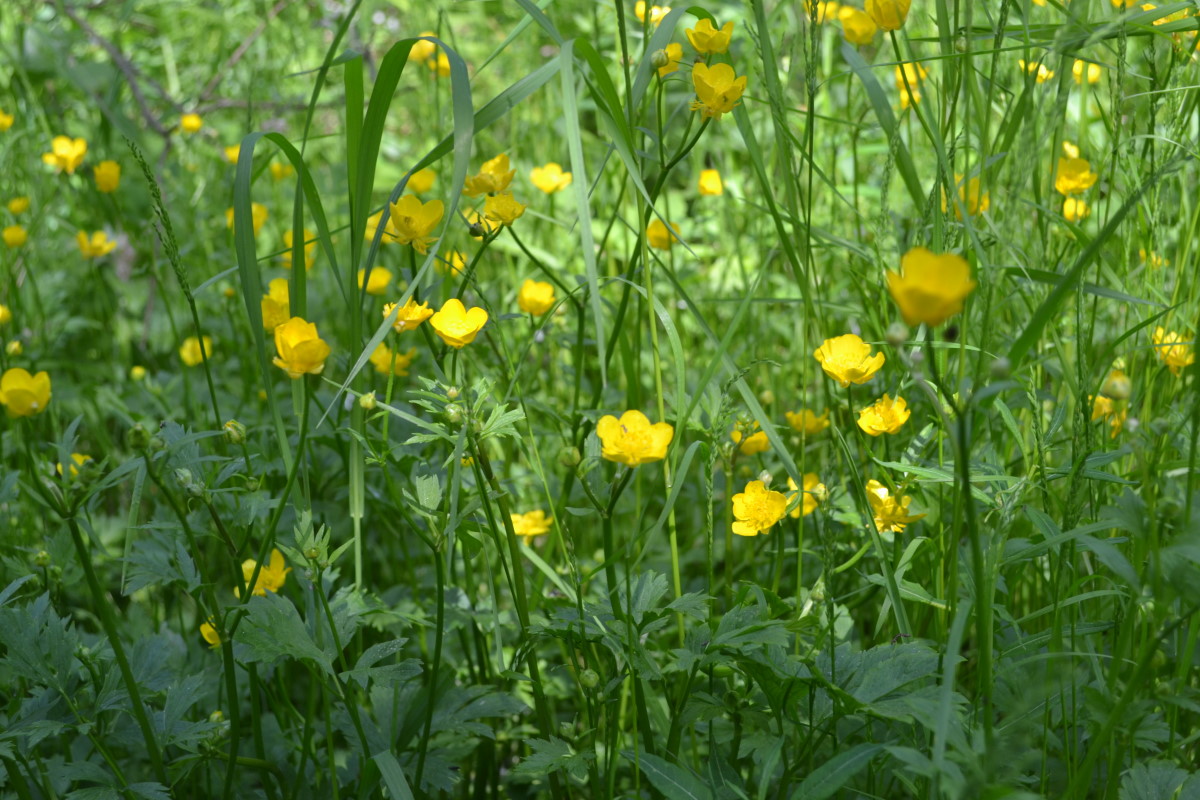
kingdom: Plantae
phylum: Tracheophyta
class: Magnoliopsida
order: Ranunculales
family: Ranunculaceae
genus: Ranunculus
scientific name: Ranunculus repens
